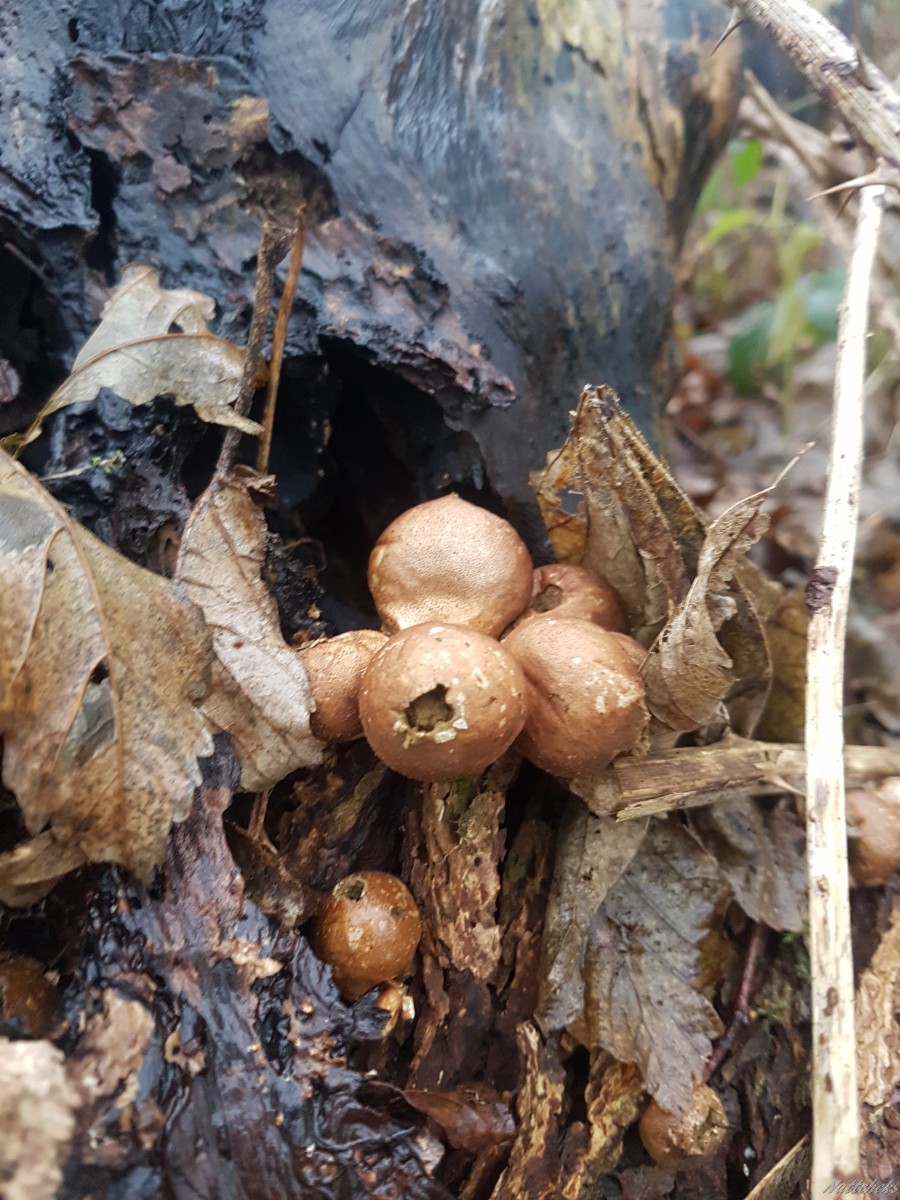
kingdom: Fungi
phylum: Basidiomycota
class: Agaricomycetes
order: Agaricales
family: Lycoperdaceae
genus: Apioperdon
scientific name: Apioperdon pyriforme
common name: pære-støvbold
